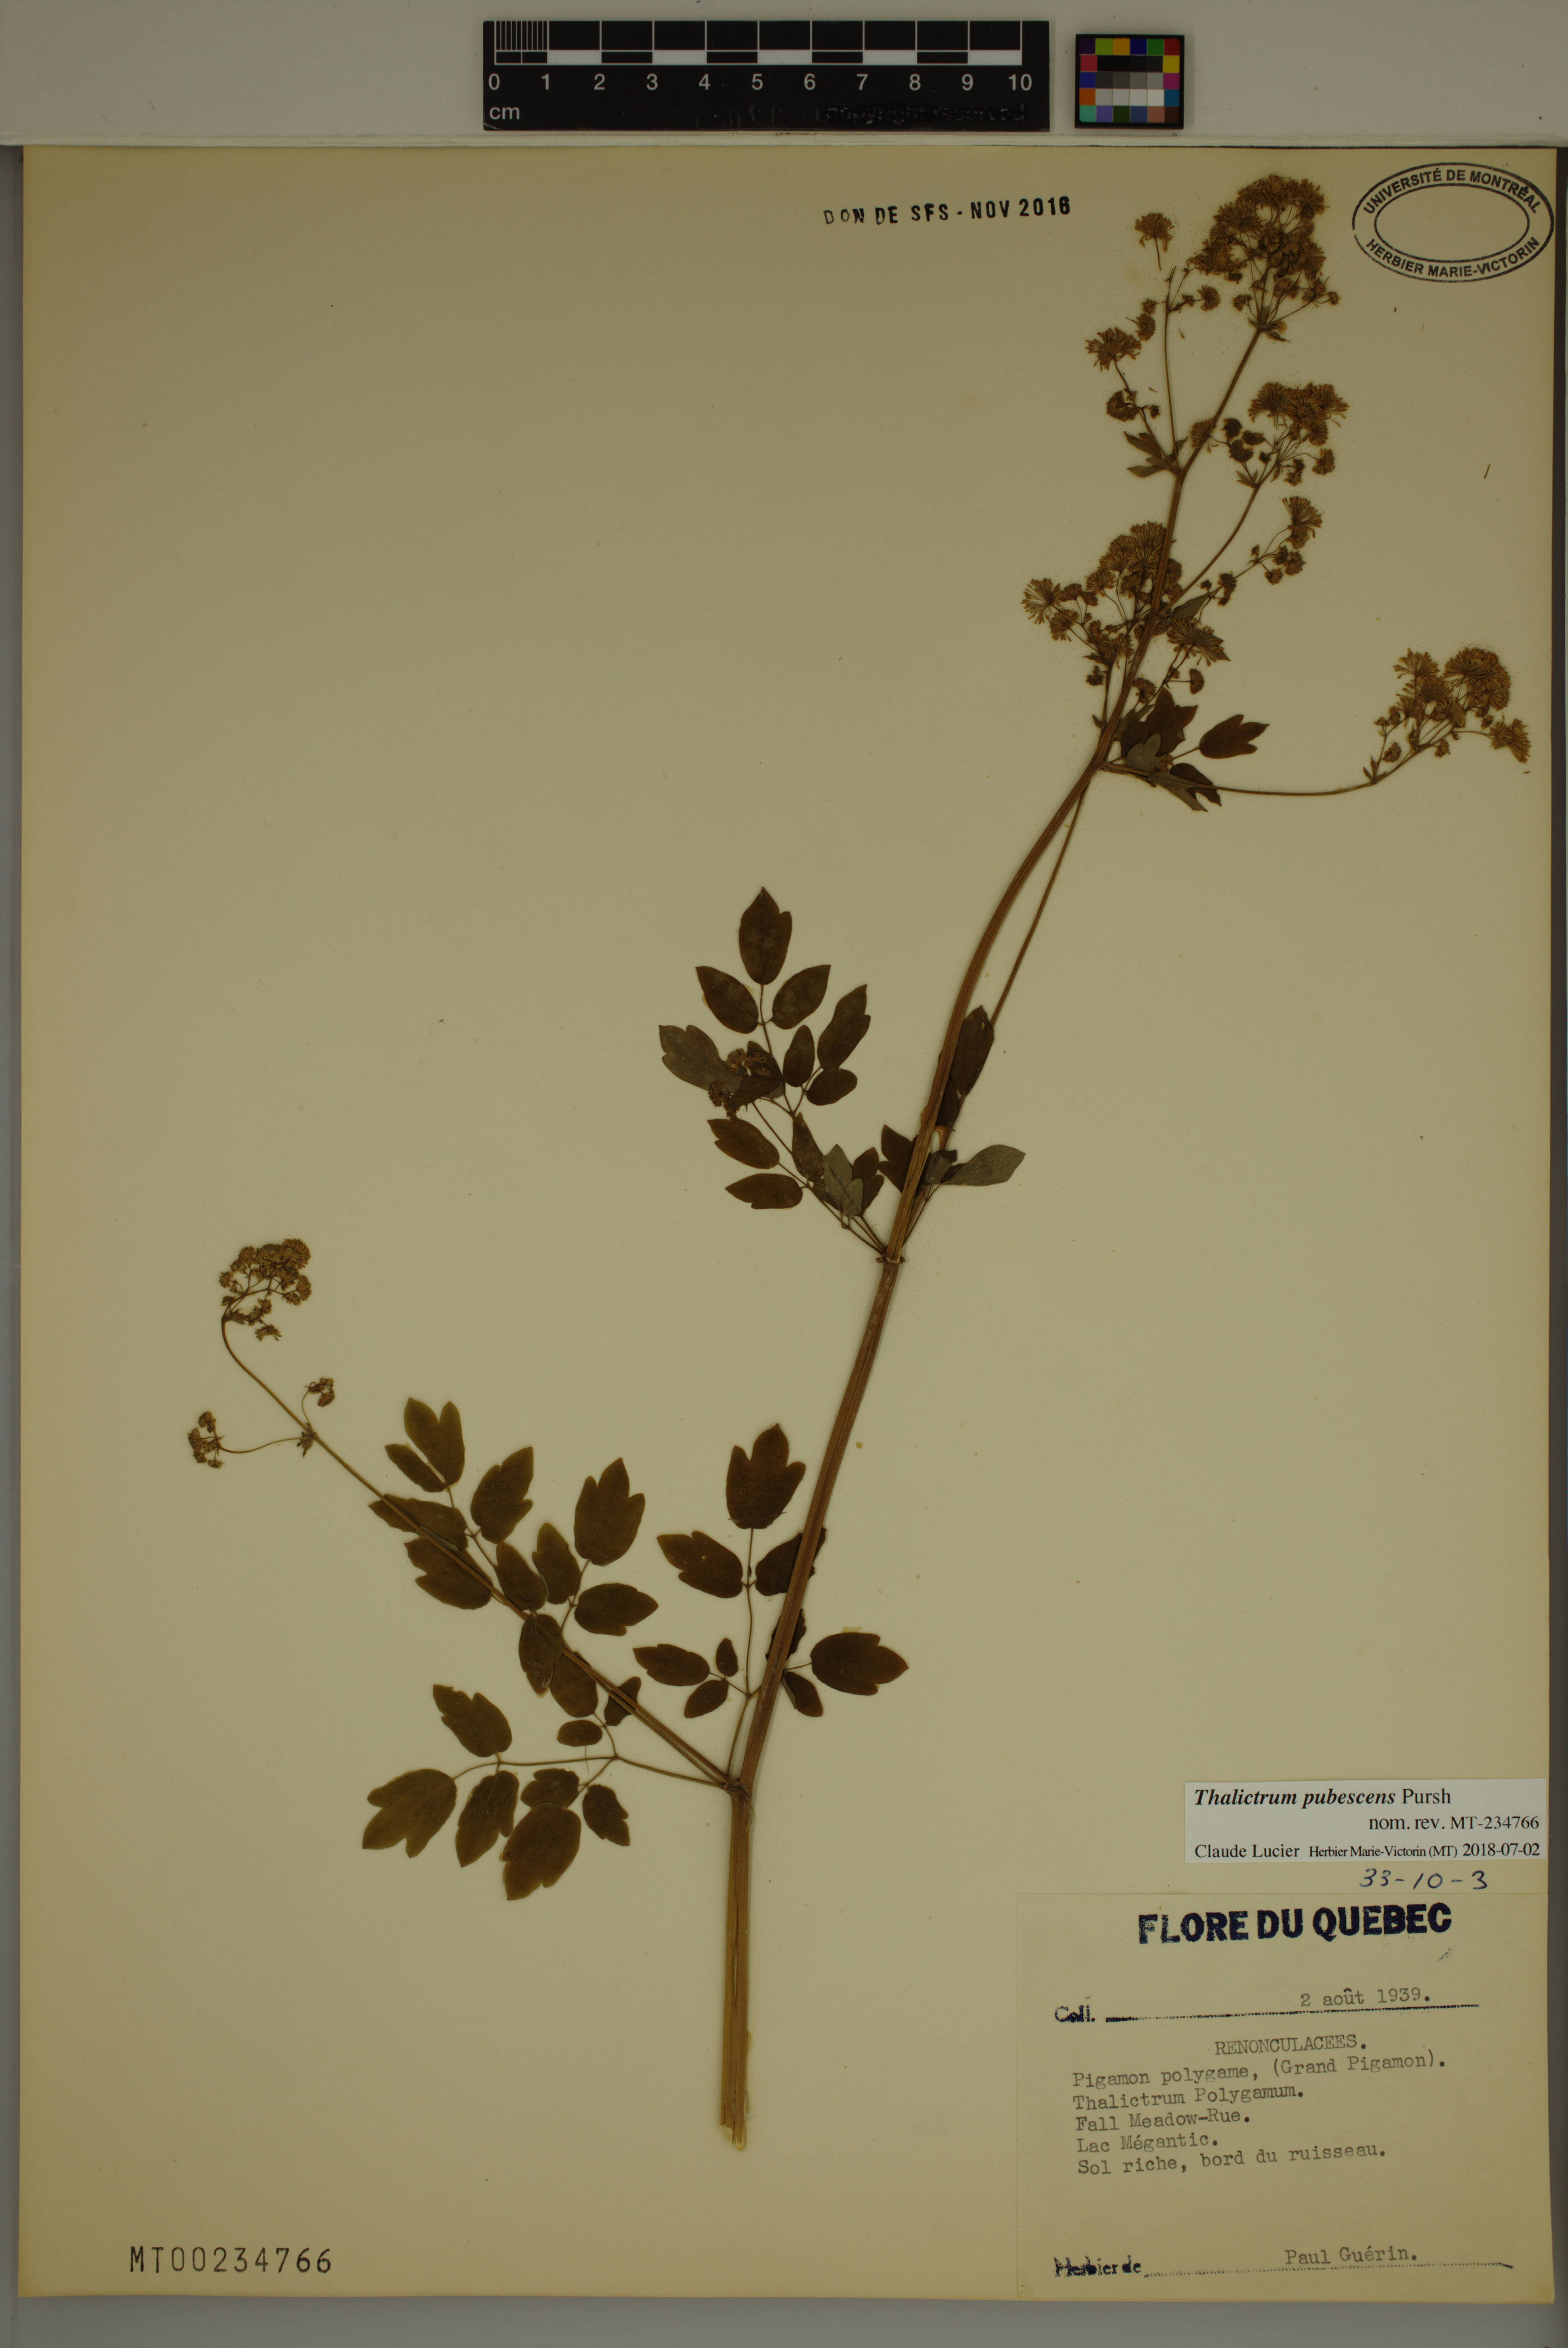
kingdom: Plantae
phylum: Tracheophyta
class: Magnoliopsida
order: Ranunculales
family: Ranunculaceae
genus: Thalictrum
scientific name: Thalictrum pubescens
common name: King-of-the-meadow
